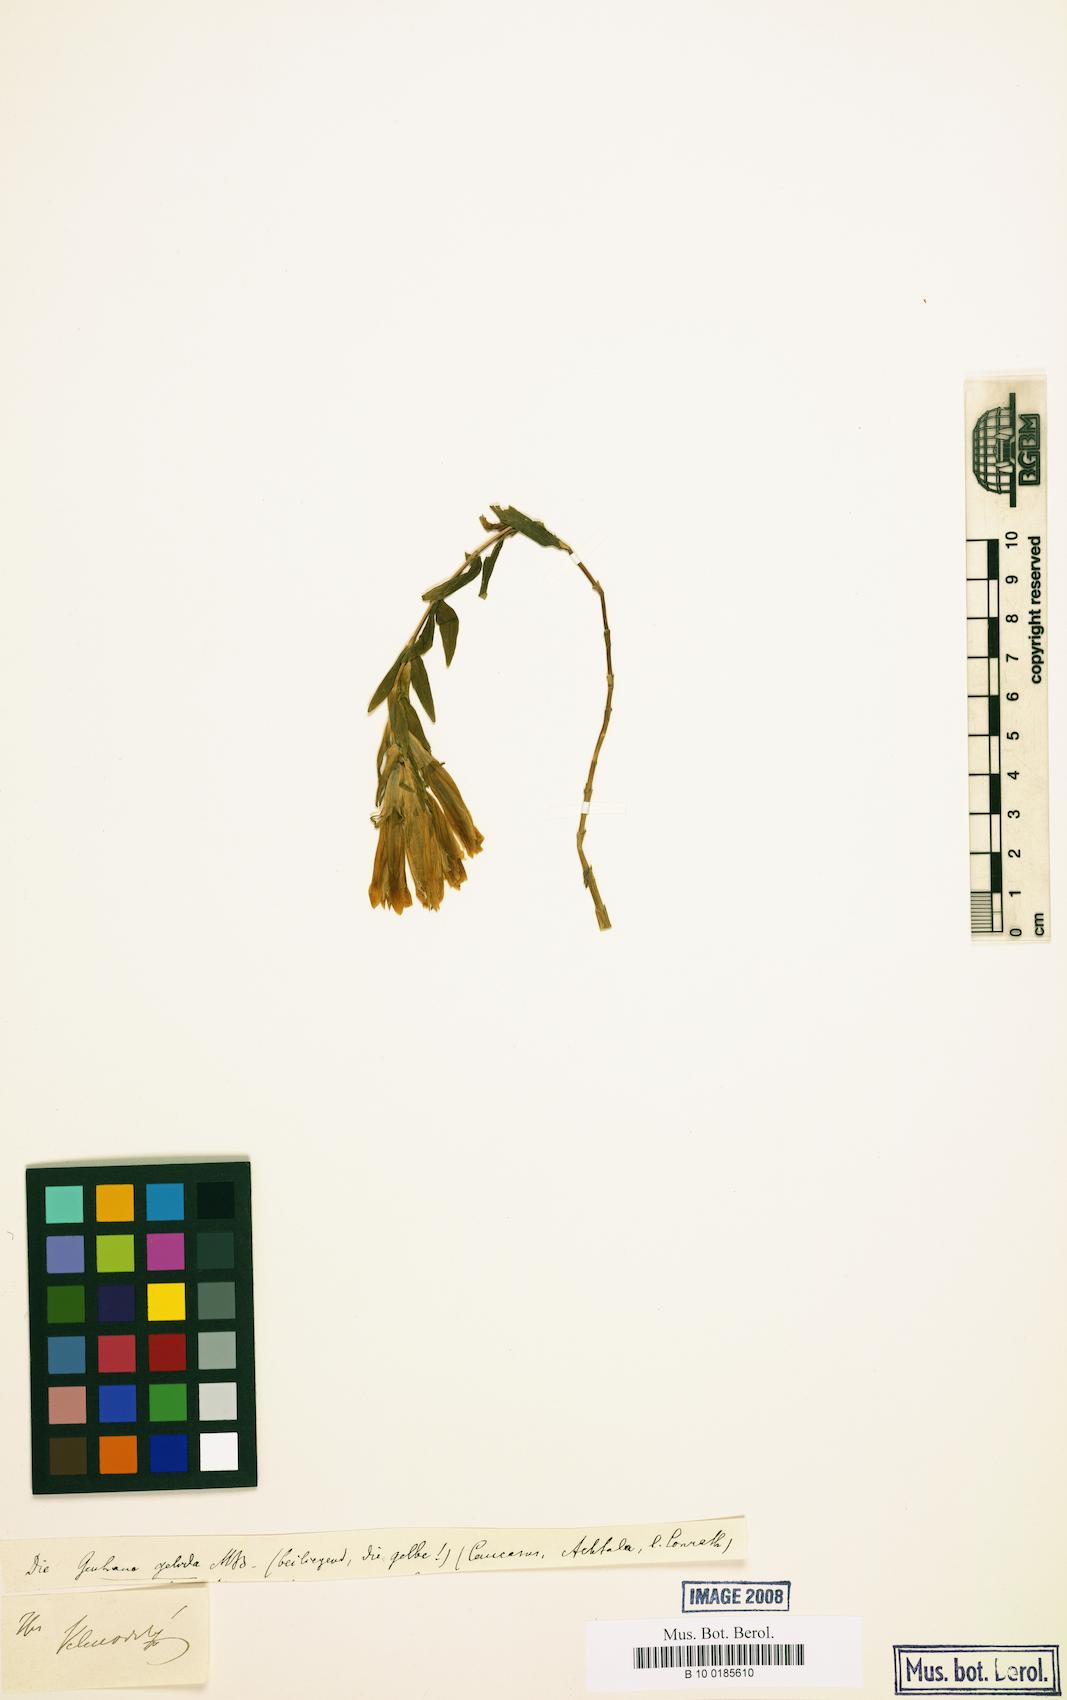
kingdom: Plantae
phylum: Tracheophyta
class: Magnoliopsida
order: Gentianales
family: Gentianaceae
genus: Gentiana
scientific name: Gentiana gelida
